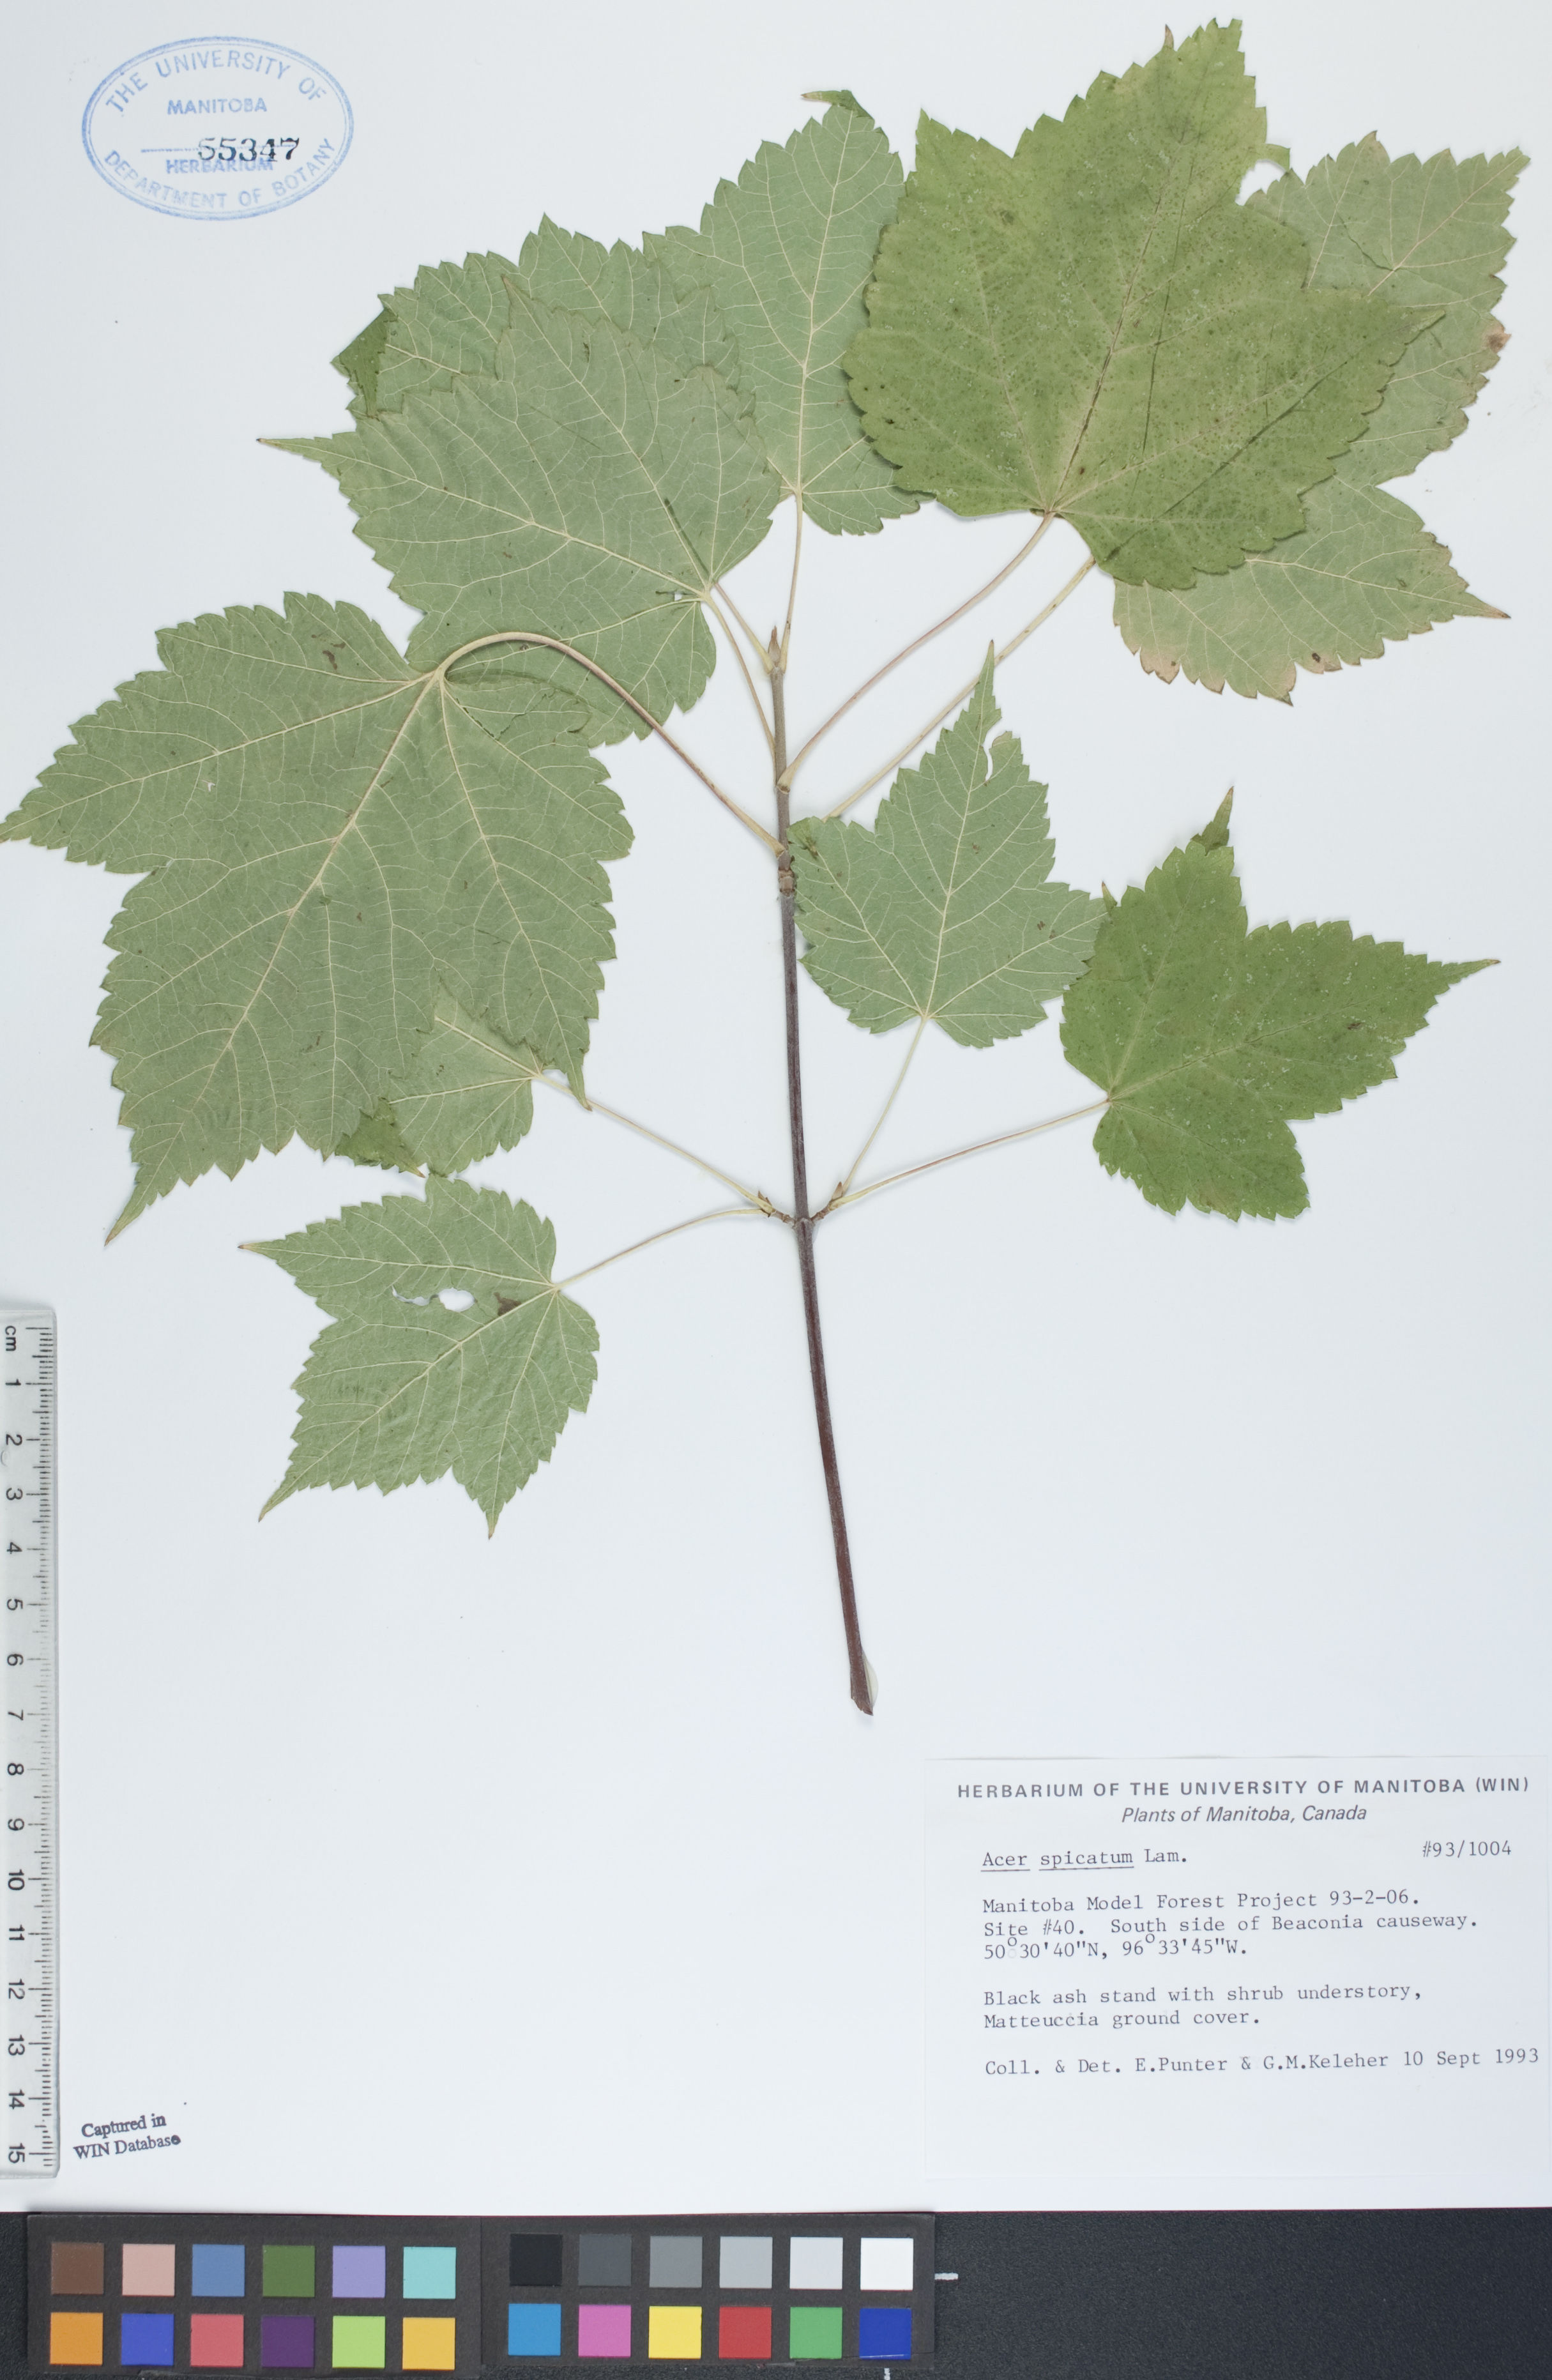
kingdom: Plantae
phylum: Tracheophyta
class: Magnoliopsida
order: Sapindales
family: Sapindaceae
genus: Acer
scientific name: Acer spicatum
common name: Mountain maple
